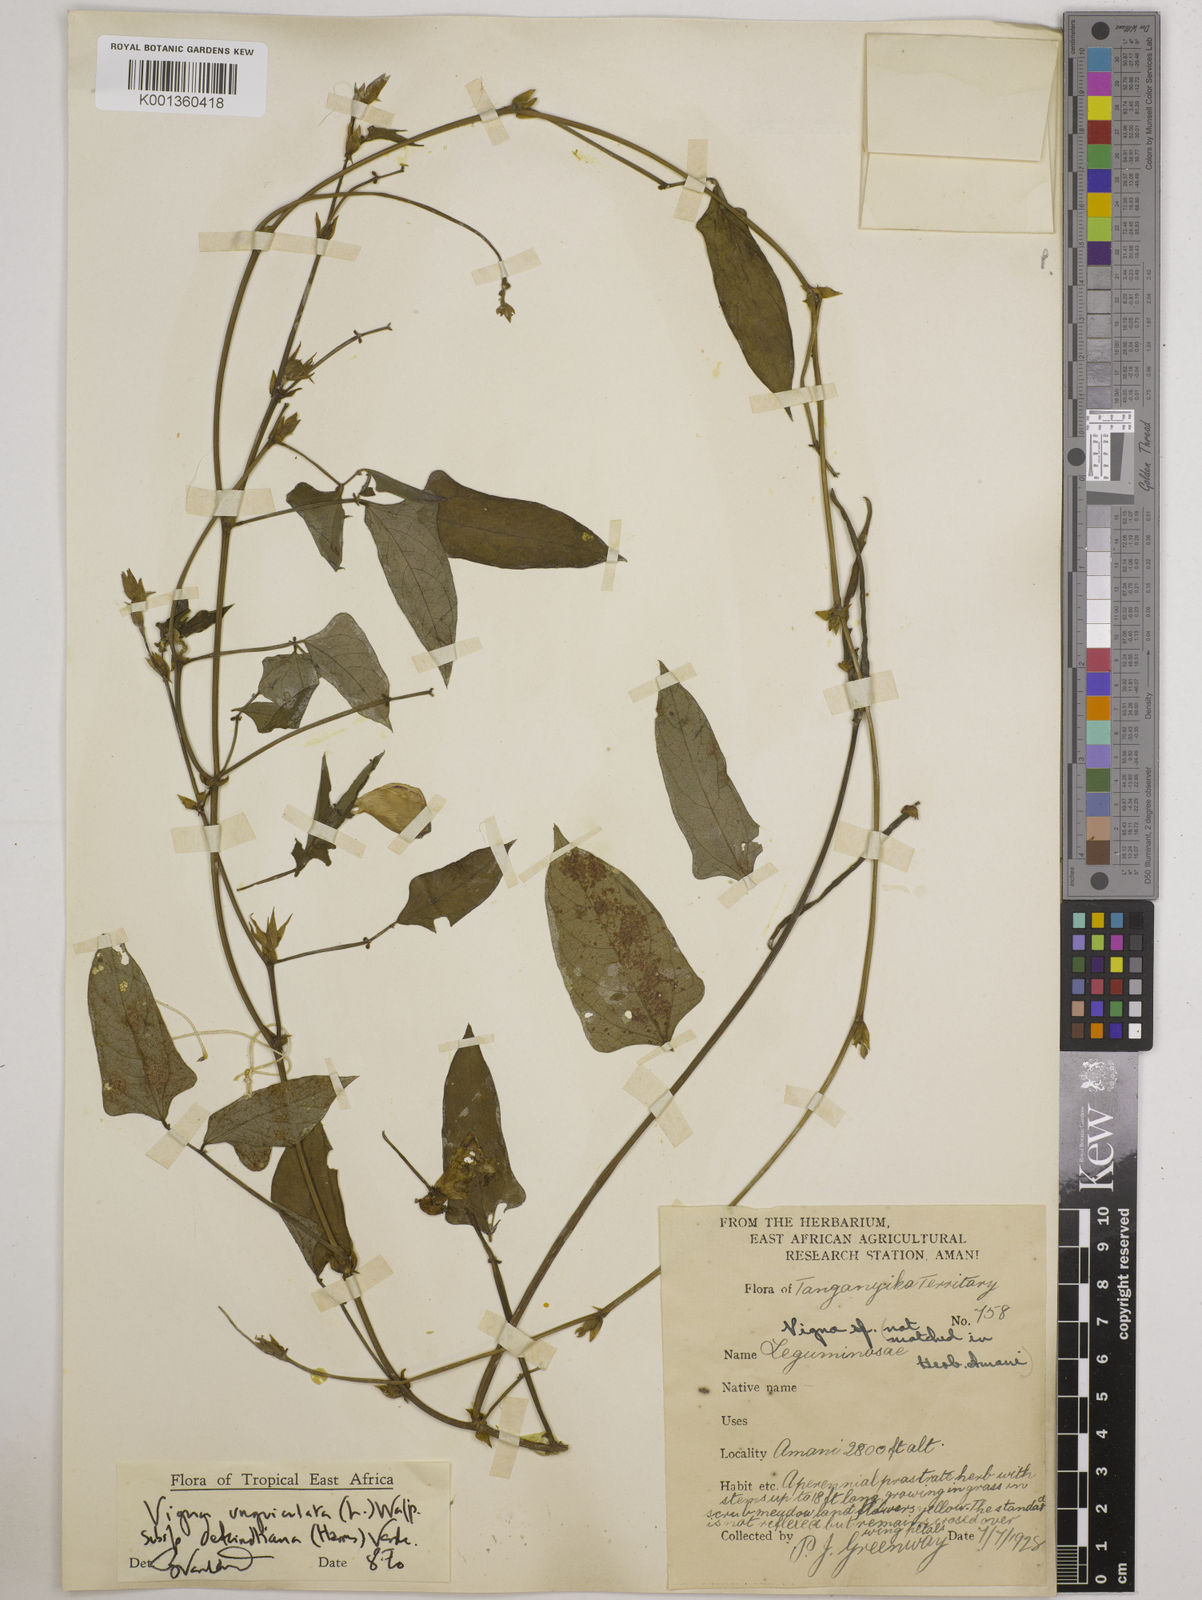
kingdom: Plantae
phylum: Tracheophyta
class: Magnoliopsida
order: Fabales
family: Fabaceae
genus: Vigna
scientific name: Vigna
